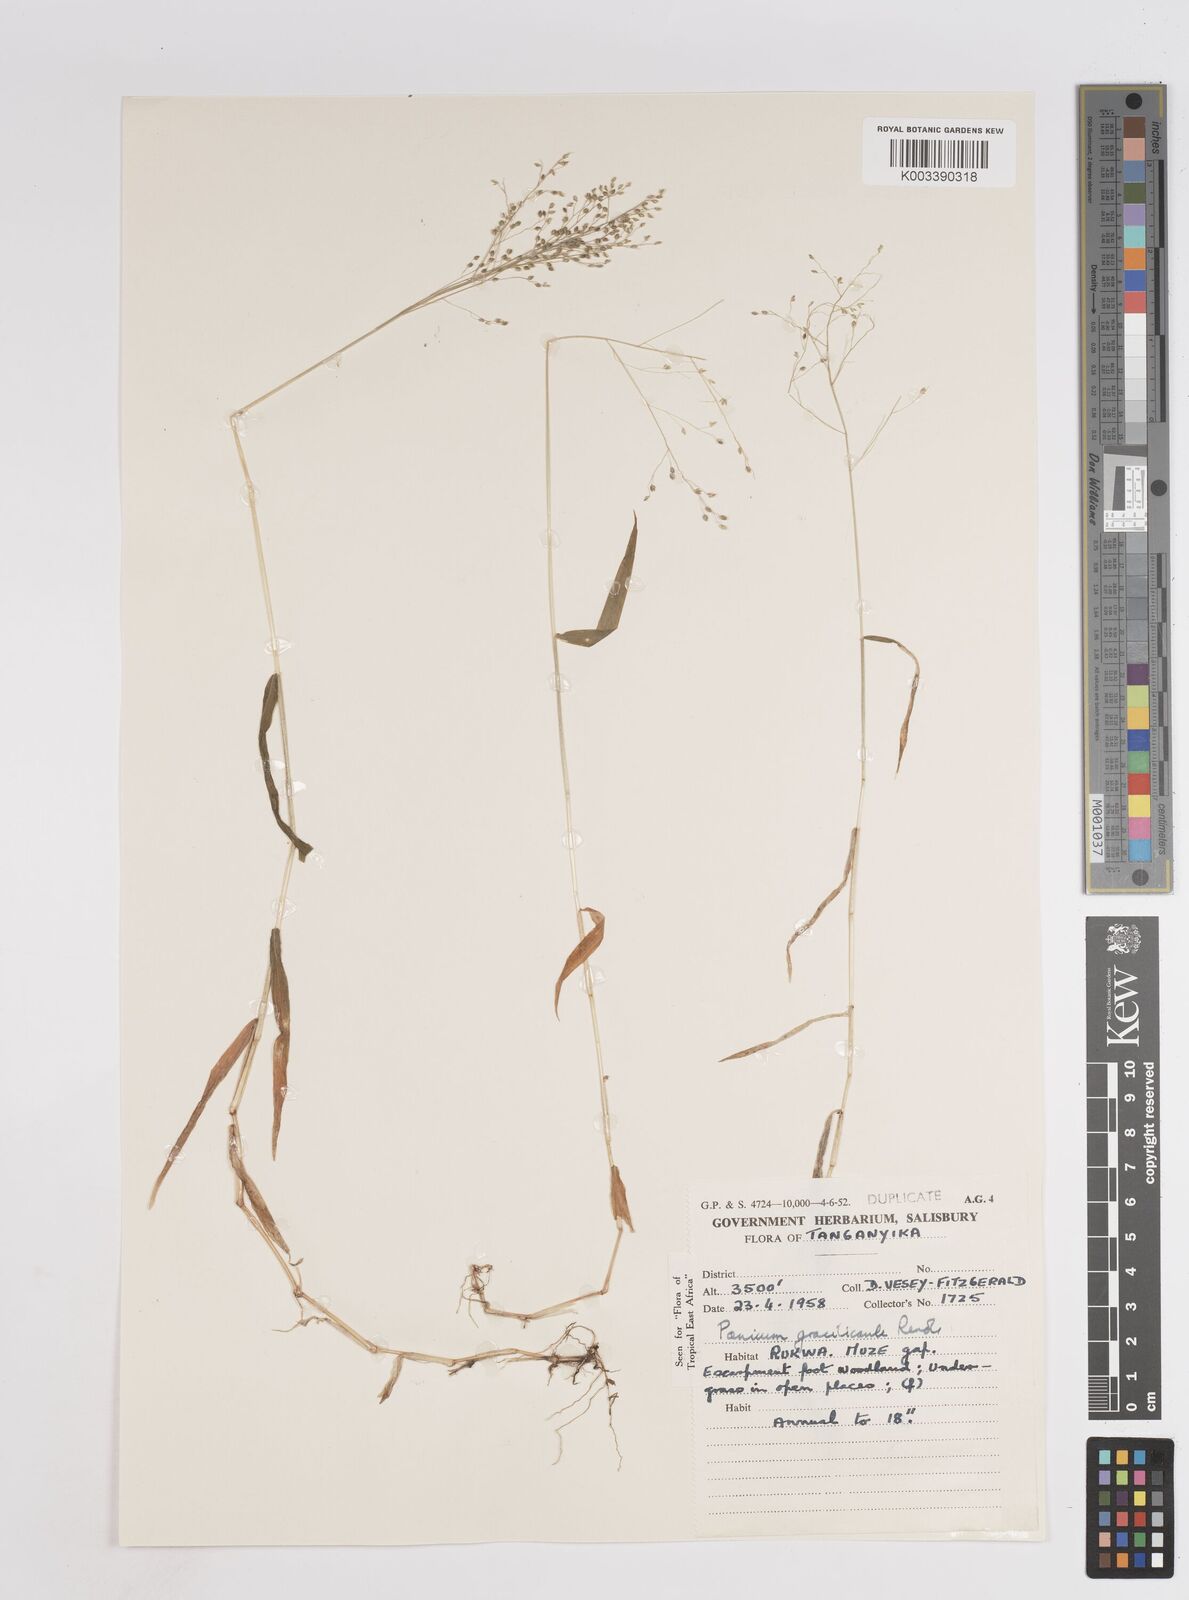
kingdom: Plantae
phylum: Tracheophyta
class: Liliopsida
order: Poales
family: Poaceae
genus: Trichanthecium
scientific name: Trichanthecium gracilicaule
